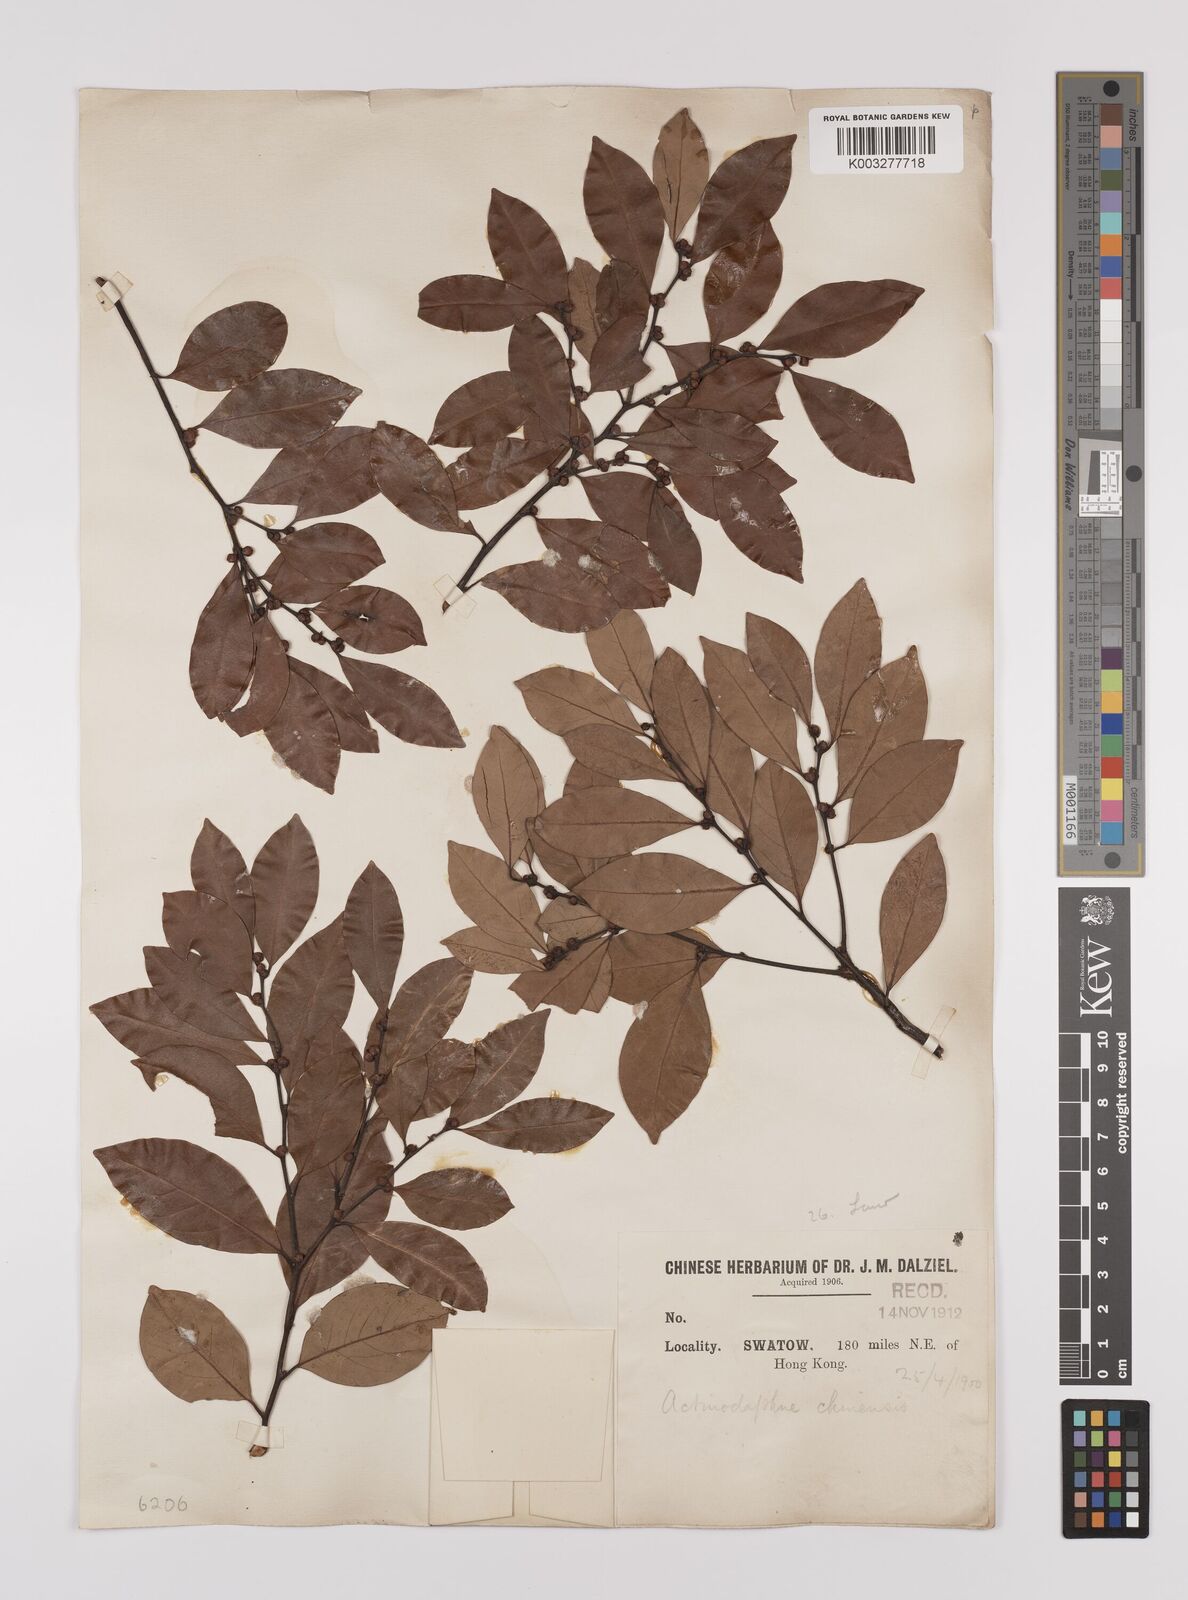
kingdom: Plantae
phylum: Tracheophyta
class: Magnoliopsida
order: Laurales
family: Lauraceae
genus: Litsea
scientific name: Litsea rotundifolia
